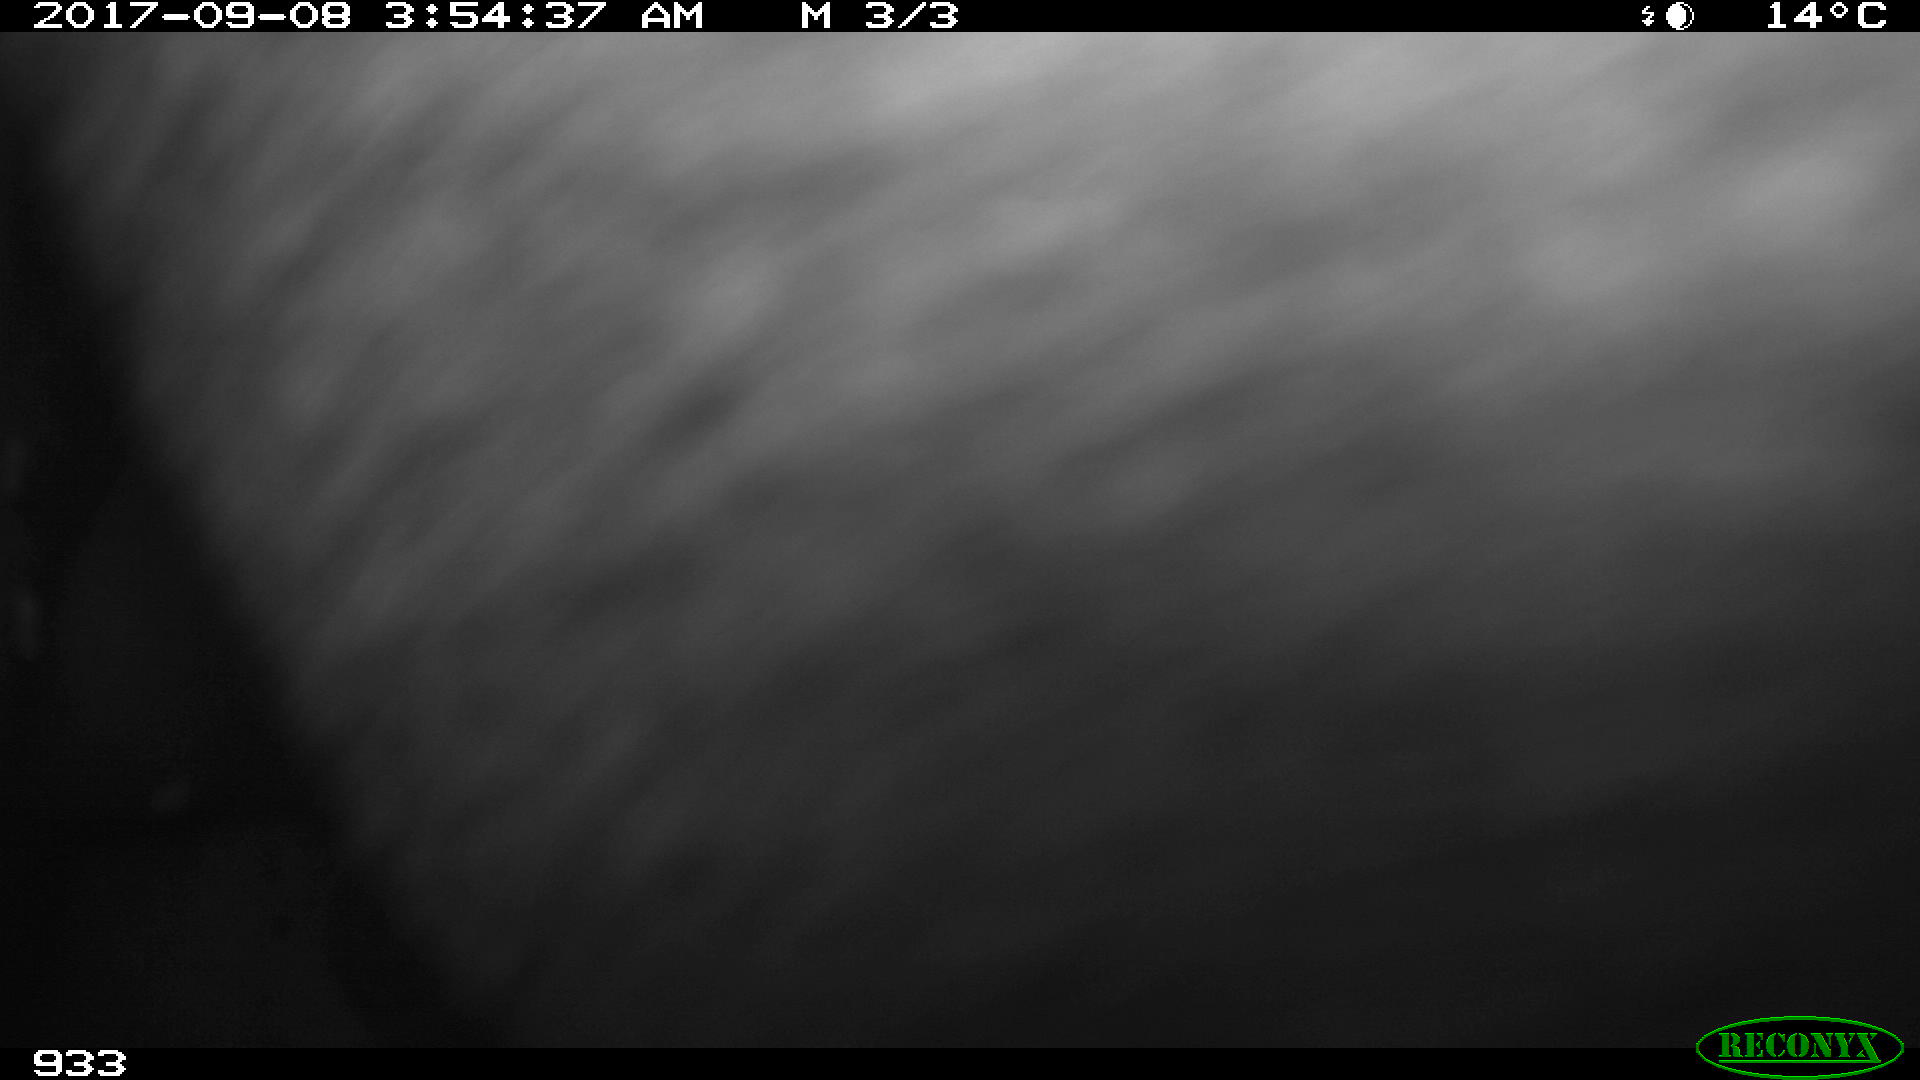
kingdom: Animalia
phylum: Chordata
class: Mammalia
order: Perissodactyla
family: Equidae
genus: Equus
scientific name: Equus caballus
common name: Horse
